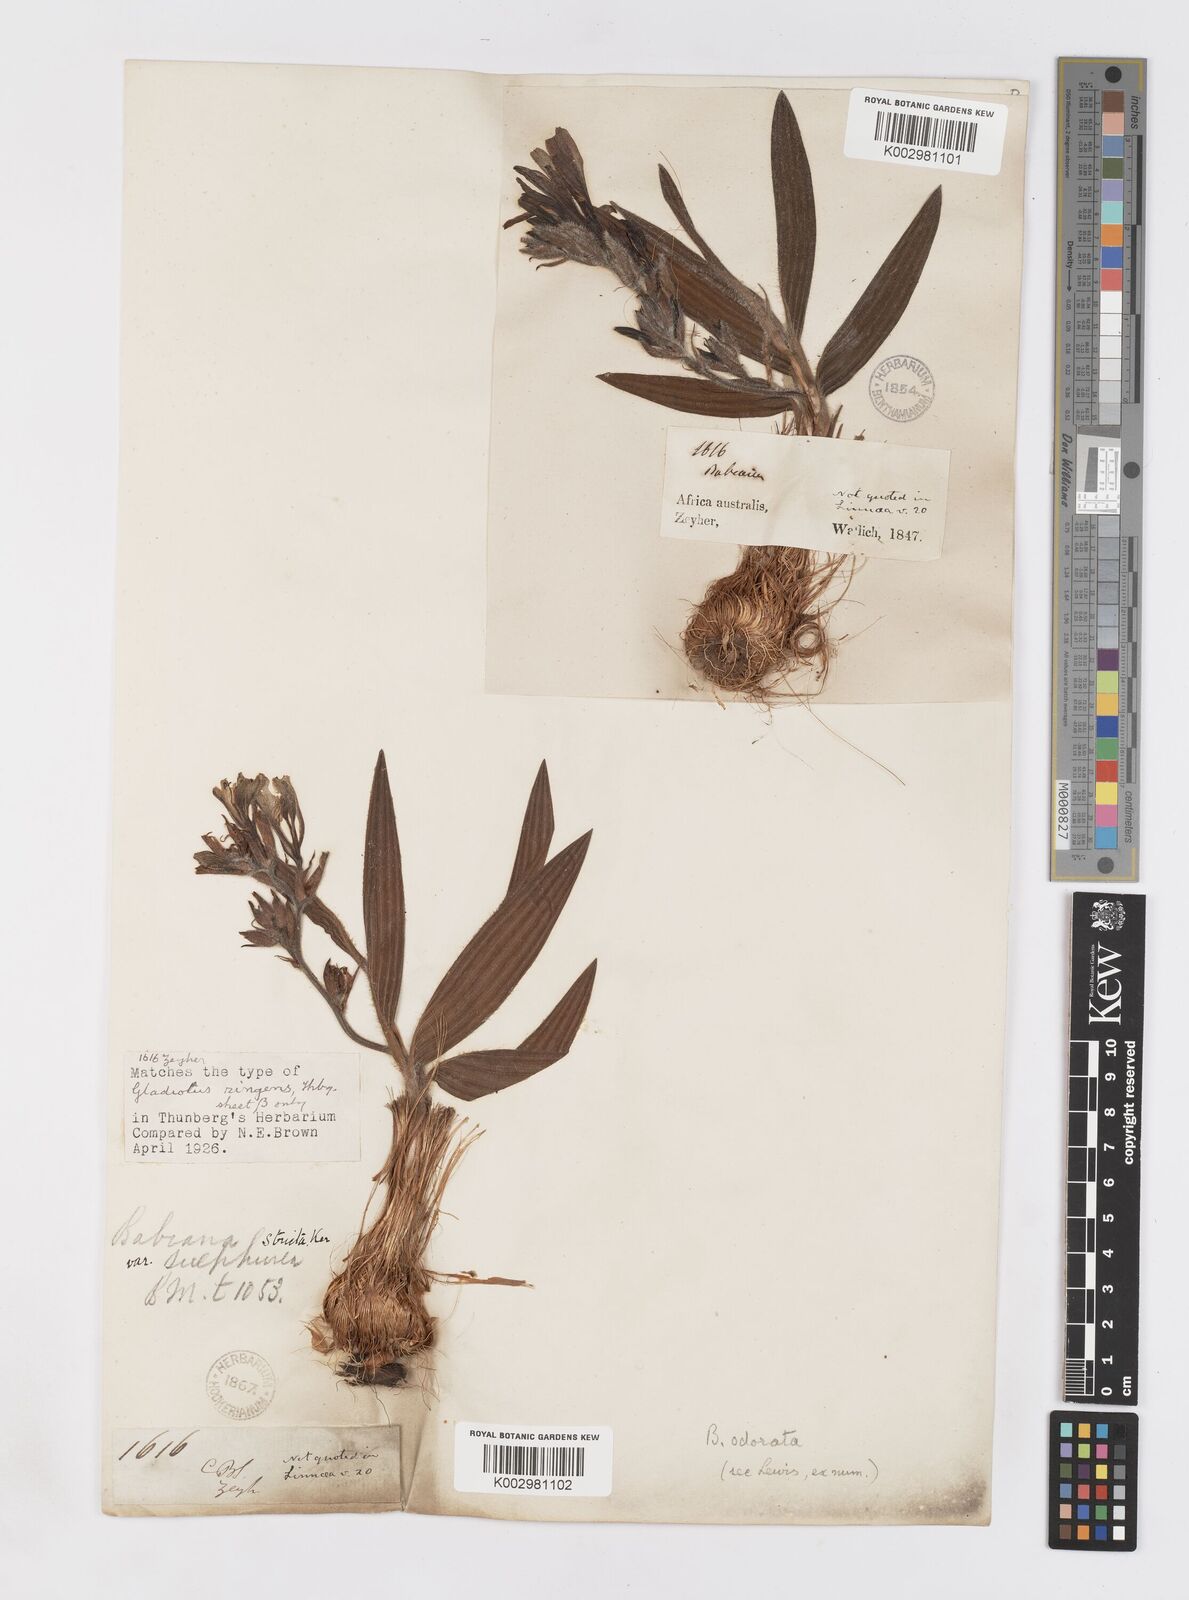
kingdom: Plantae
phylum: Tracheophyta
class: Liliopsida
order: Asparagales
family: Iridaceae
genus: Babiana
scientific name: Babiana odorata
